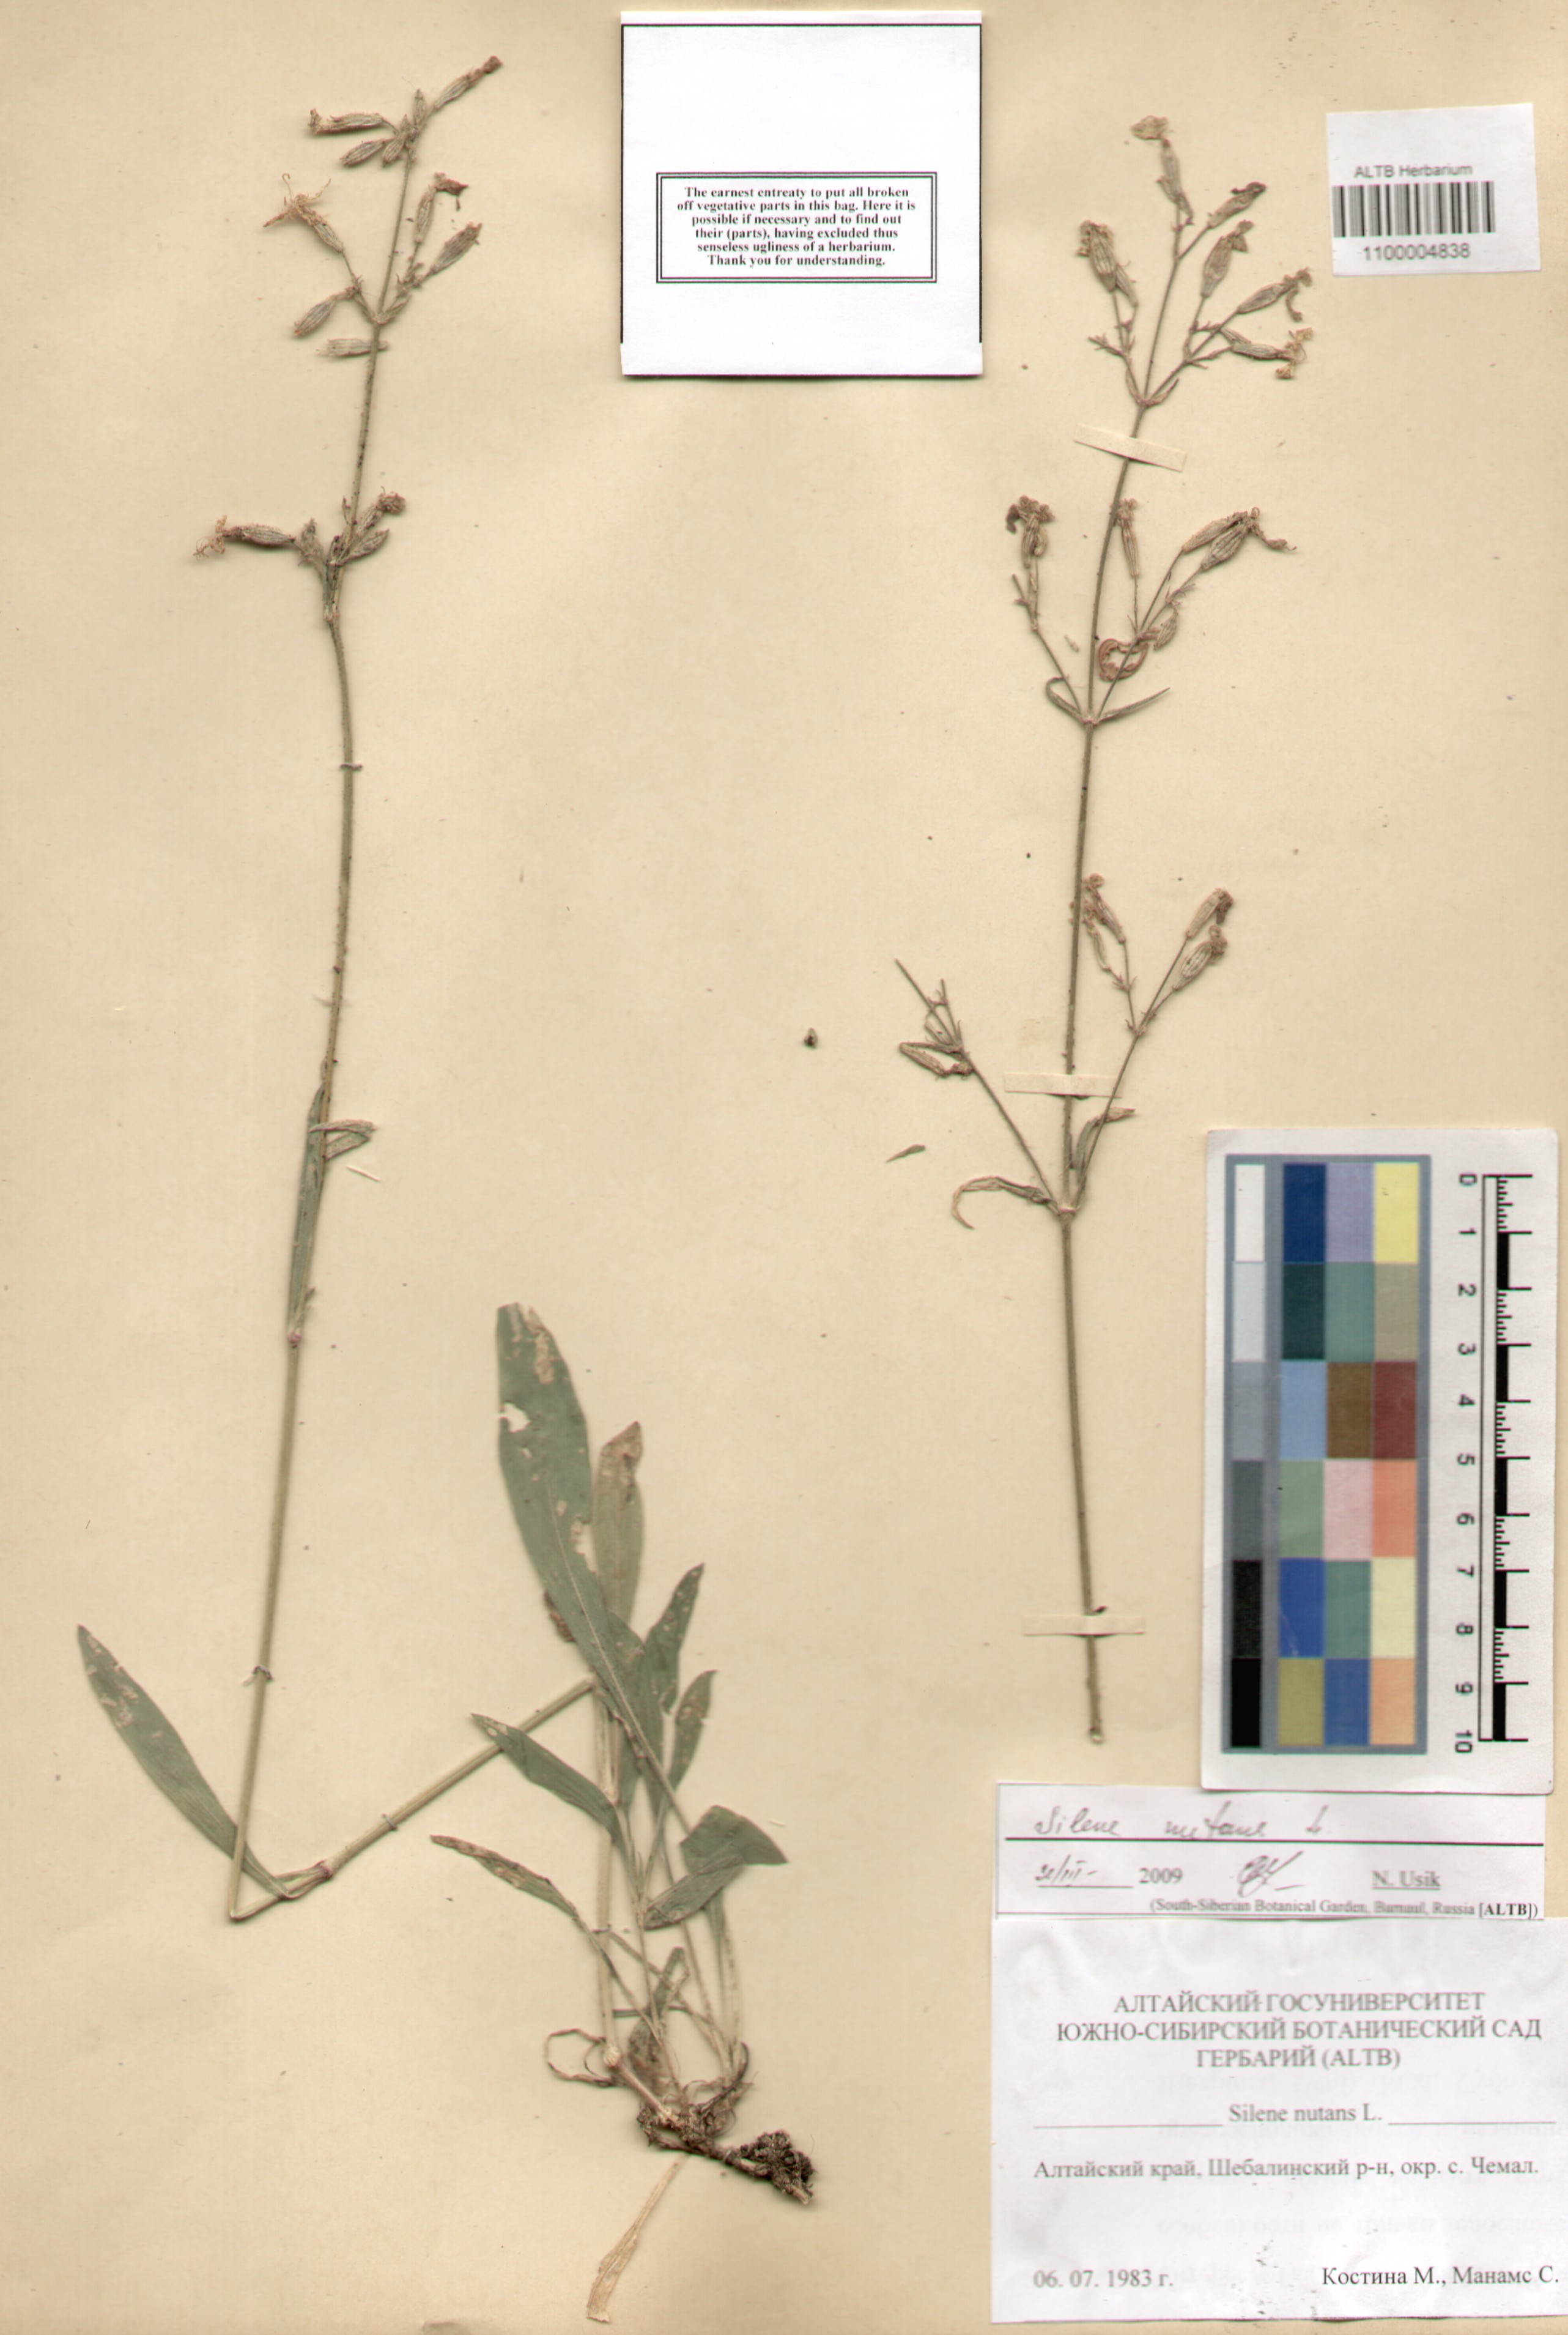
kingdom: Plantae
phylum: Tracheophyta
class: Magnoliopsida
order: Caryophyllales
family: Caryophyllaceae
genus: Silene
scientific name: Silene nutans
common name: Nottingham catchfly
